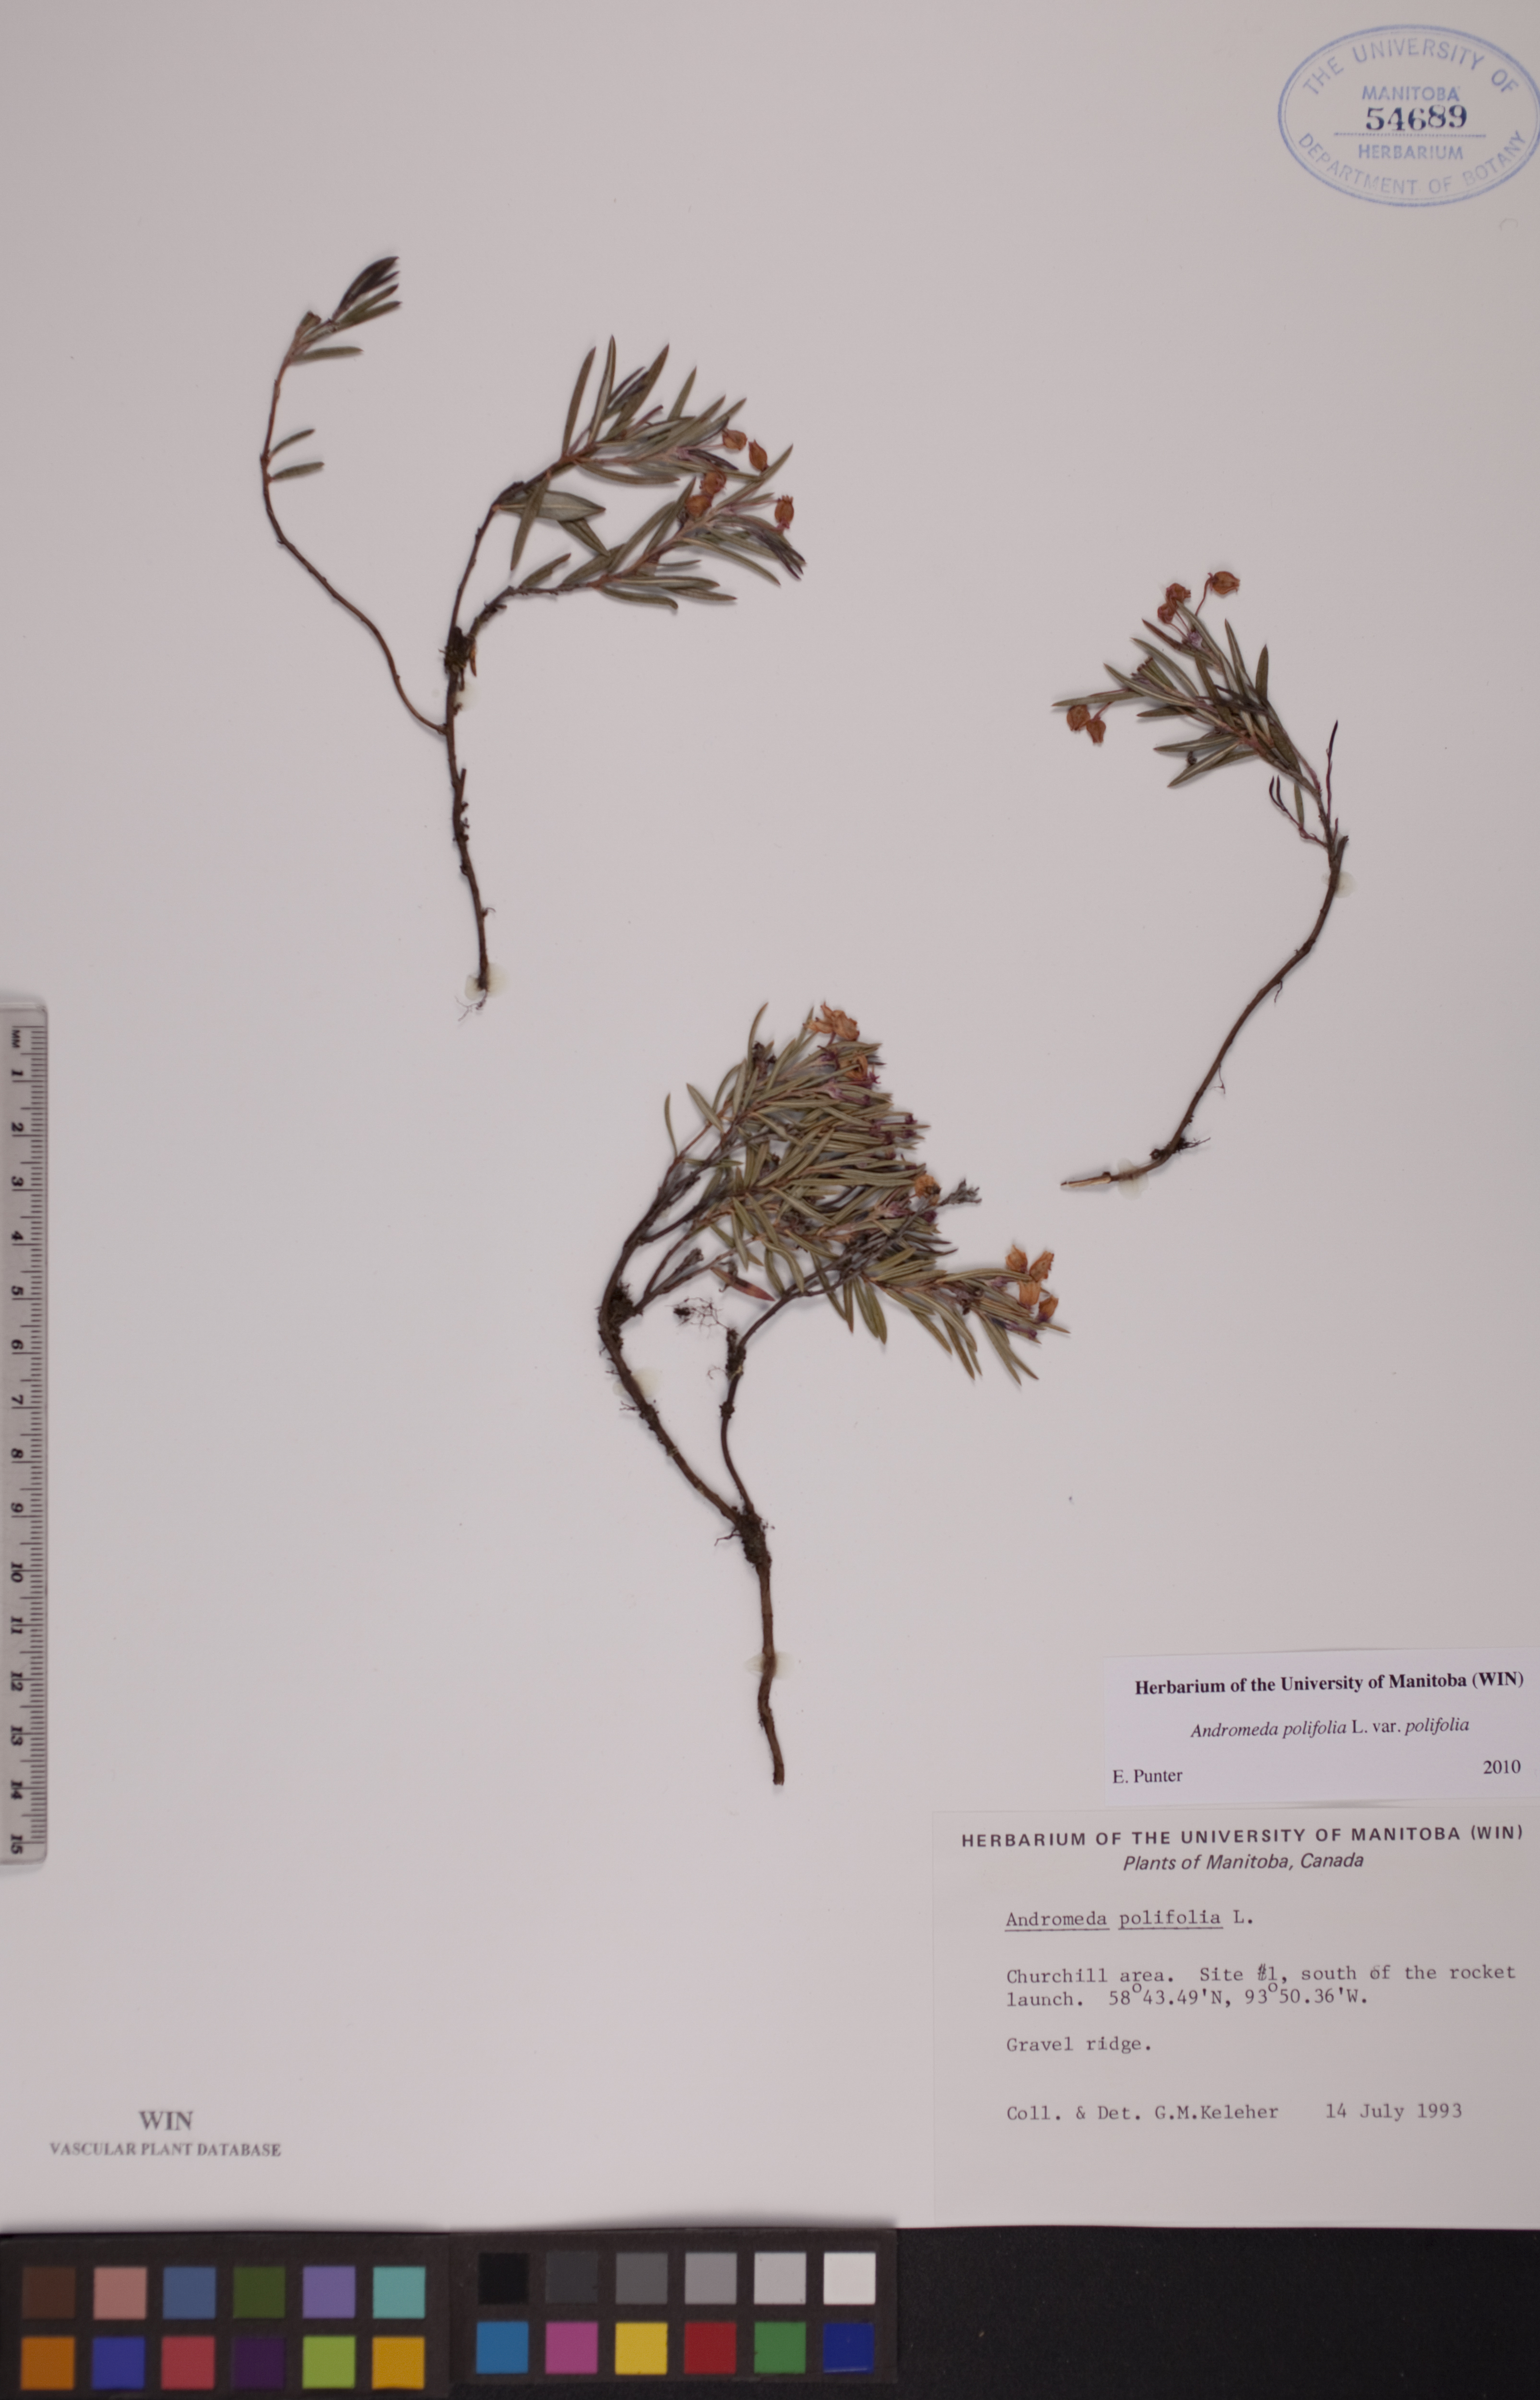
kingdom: Plantae
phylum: Tracheophyta
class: Magnoliopsida
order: Ericales
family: Ericaceae
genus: Andromeda
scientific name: Andromeda polifolia
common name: Bog-rosemary
